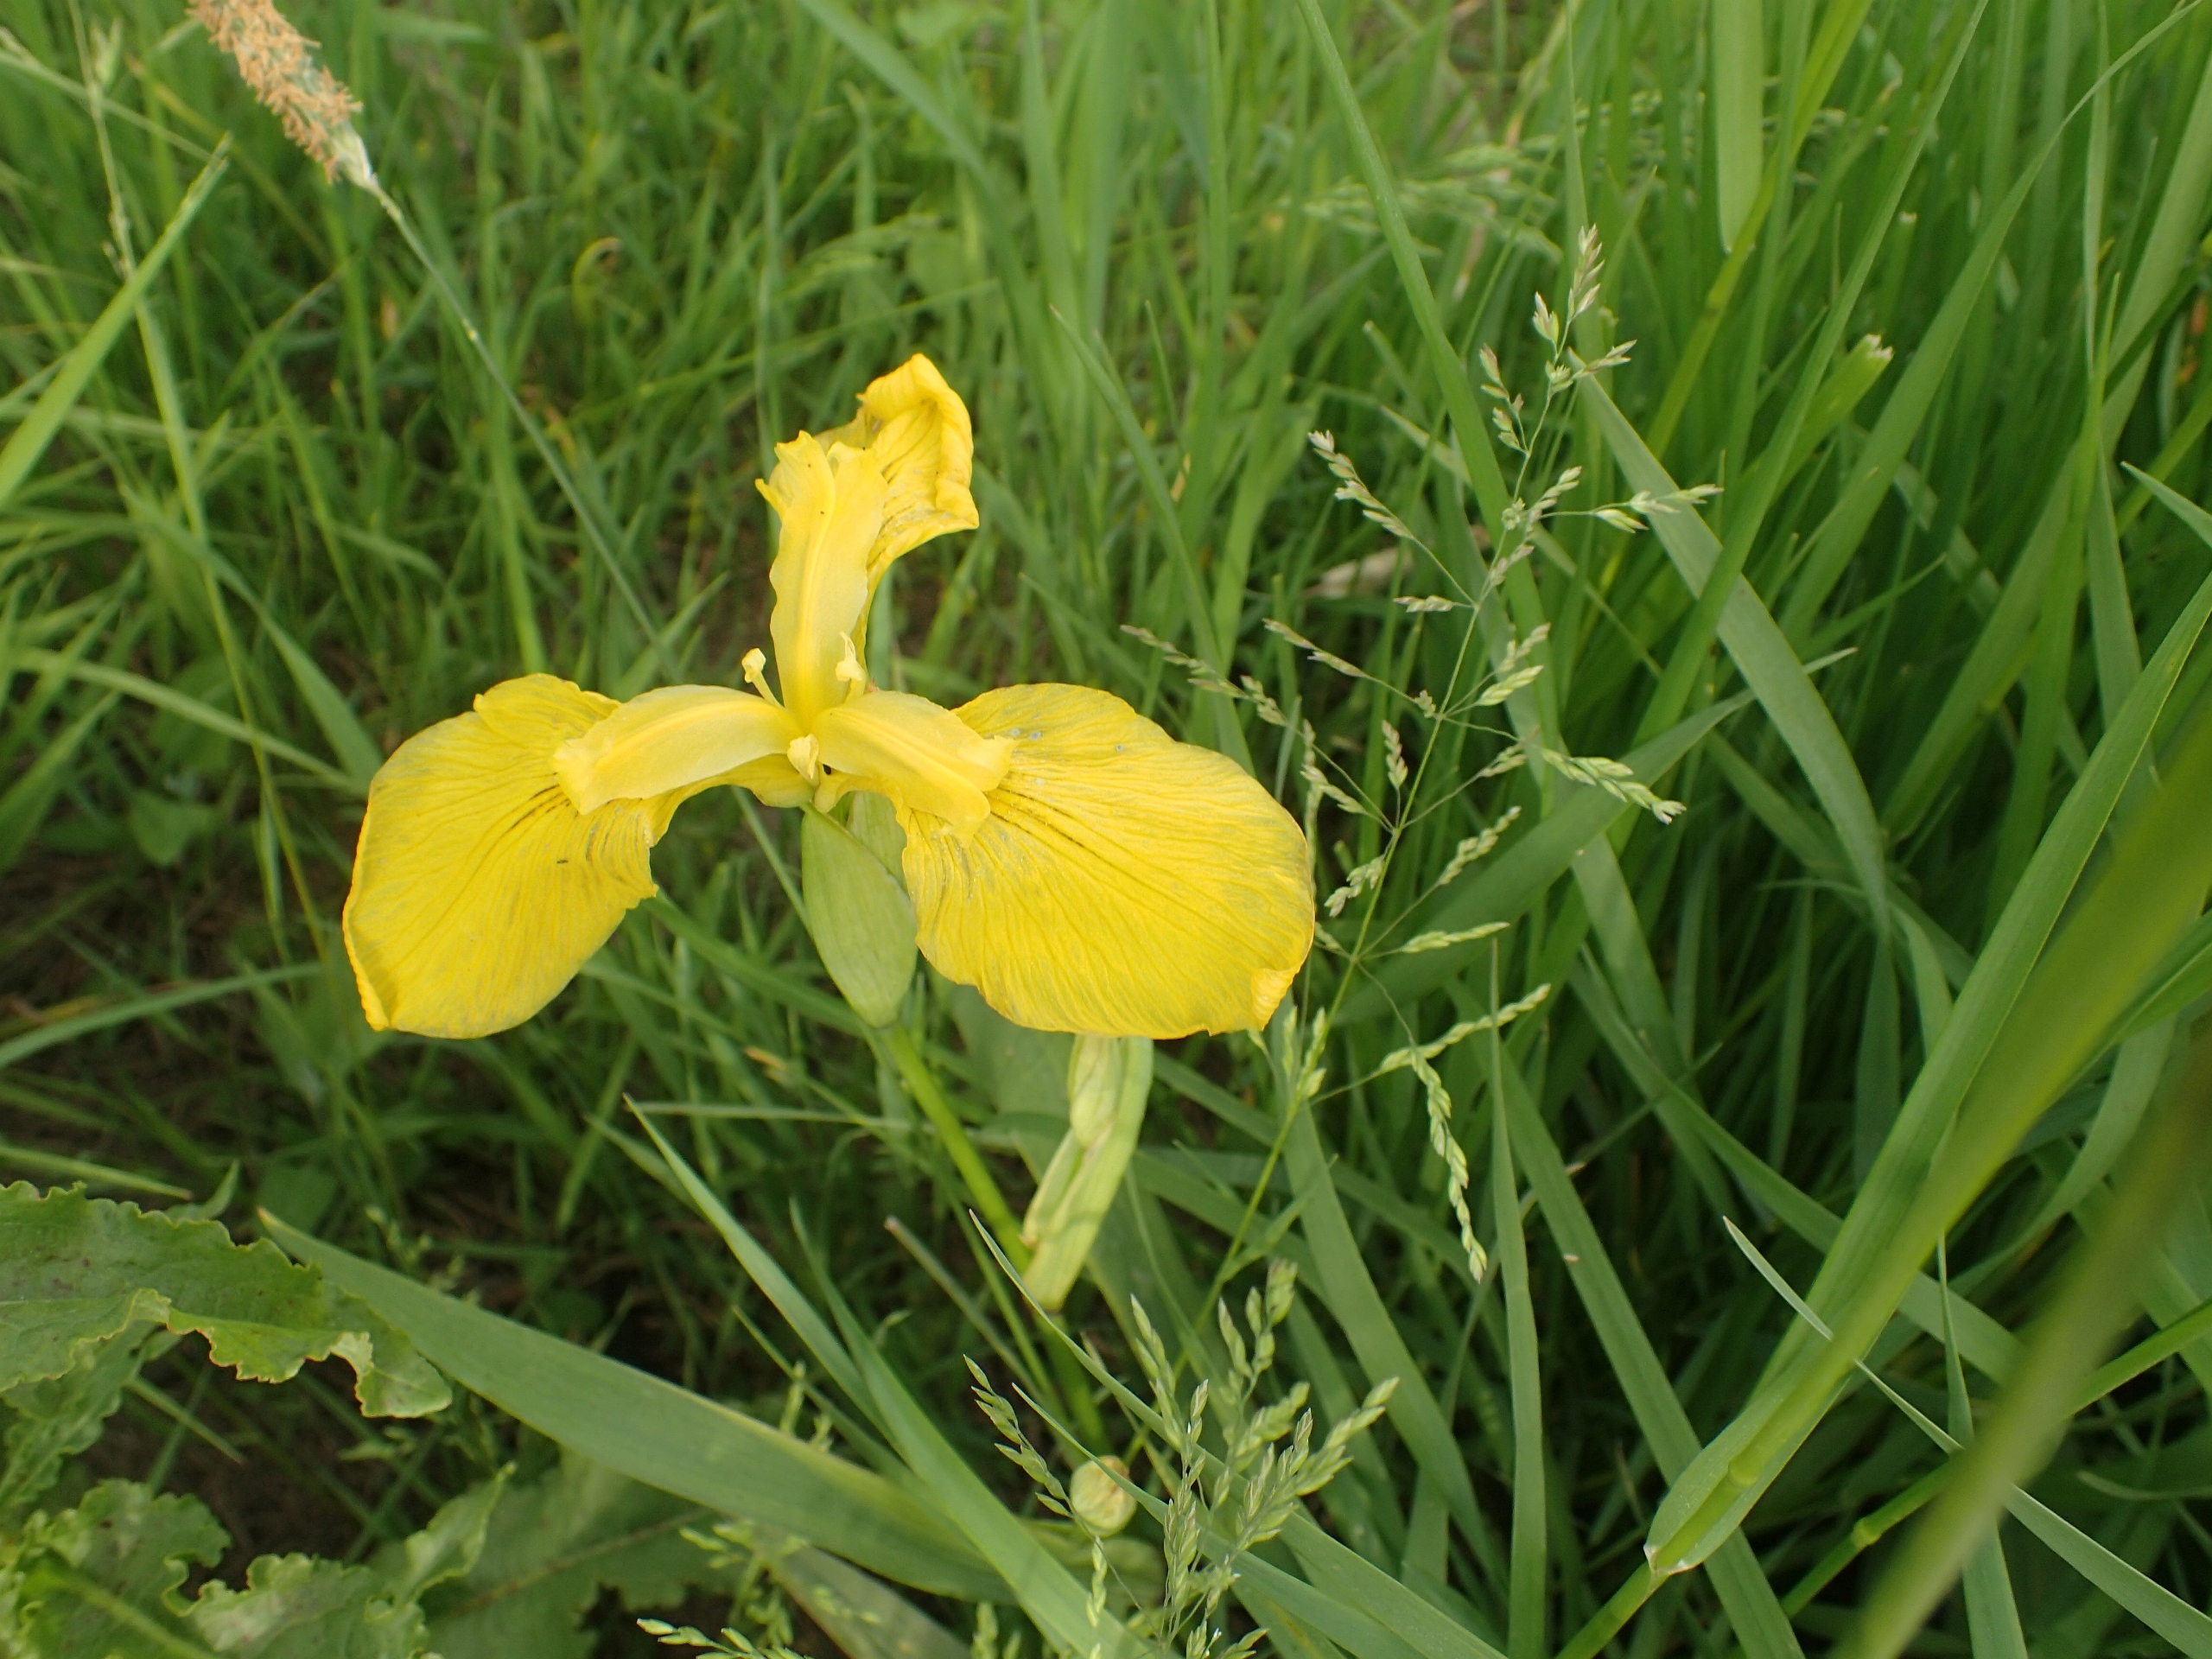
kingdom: Plantae
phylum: Tracheophyta
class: Liliopsida
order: Asparagales
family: Iridaceae
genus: Iris
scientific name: Iris pseudacorus
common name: Gul iris
